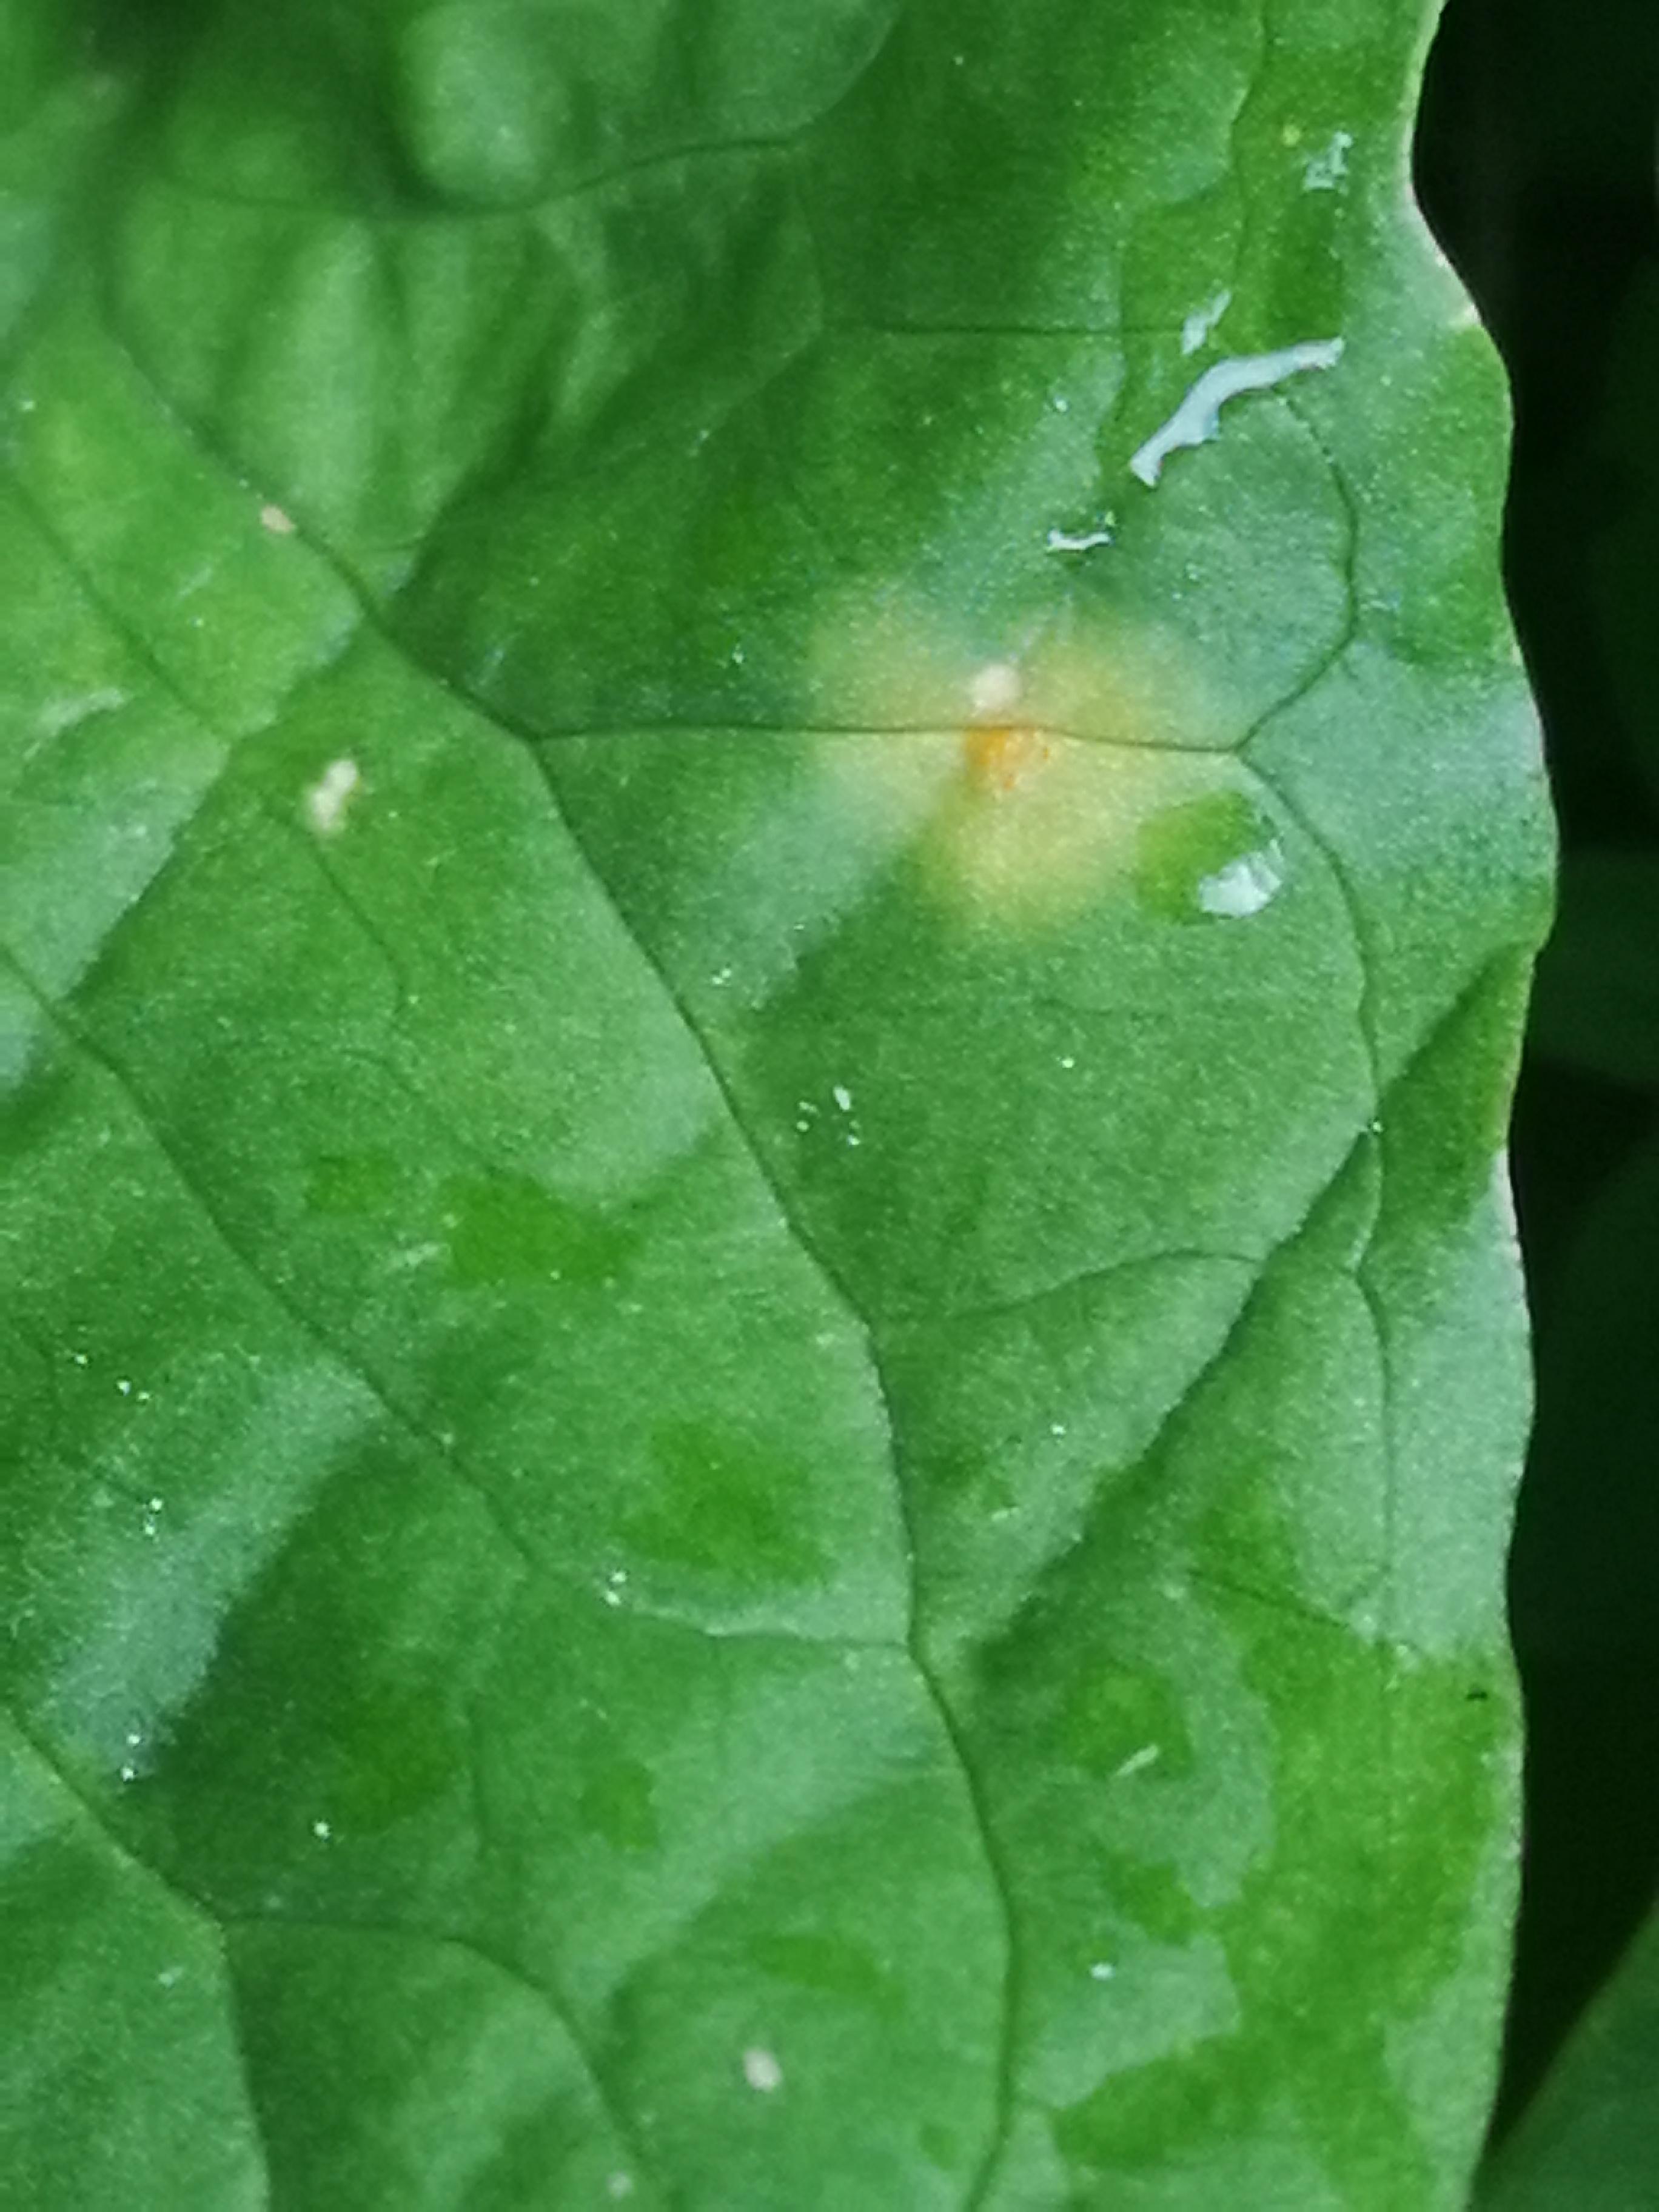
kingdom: Fungi
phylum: Basidiomycota
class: Pucciniomycetes
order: Pucciniales
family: Pucciniaceae
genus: Puccinia
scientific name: Puccinia sessilis
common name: Arum rust
